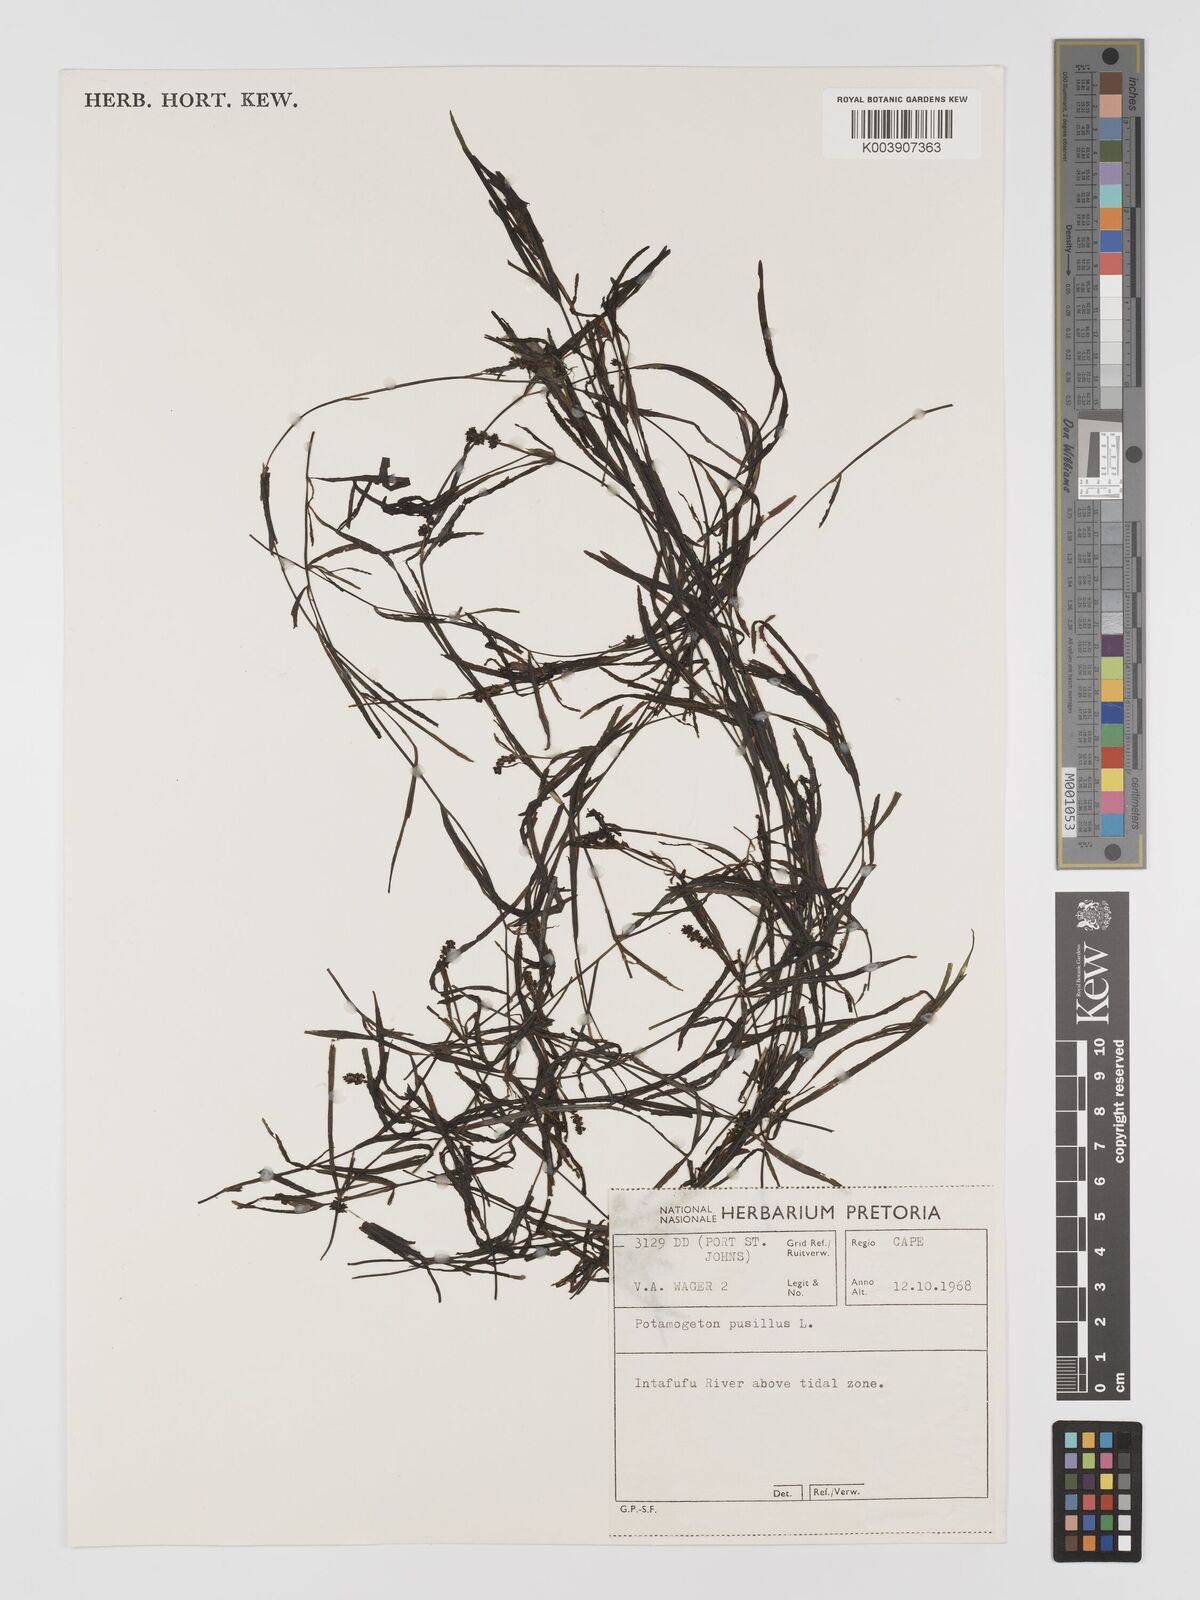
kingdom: Plantae
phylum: Tracheophyta
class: Liliopsida
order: Alismatales
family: Potamogetonaceae
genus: Potamogeton
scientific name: Potamogeton pusillus
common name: Lesser pondweed
